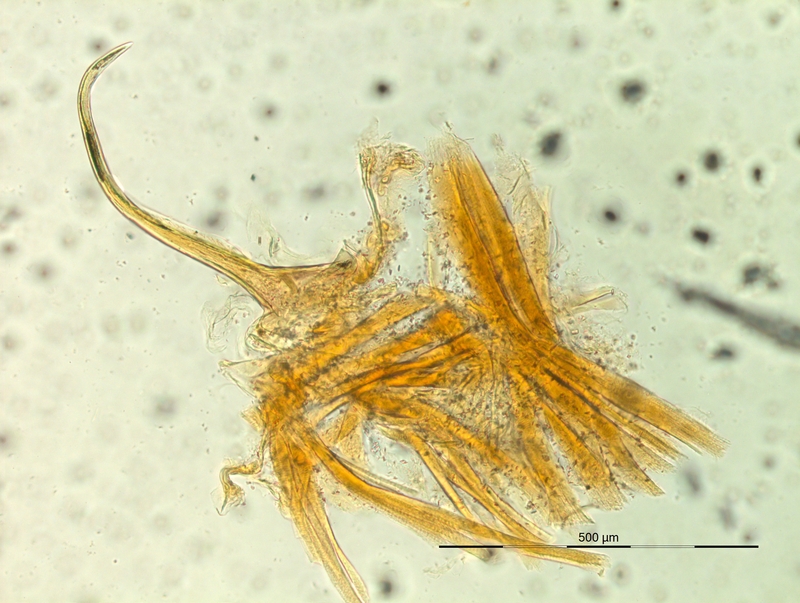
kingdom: Animalia
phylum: Arthropoda
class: Diplopoda
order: Chordeumatida
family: Craspedosomatidae
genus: Iulogona
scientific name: Iulogona tirolense
